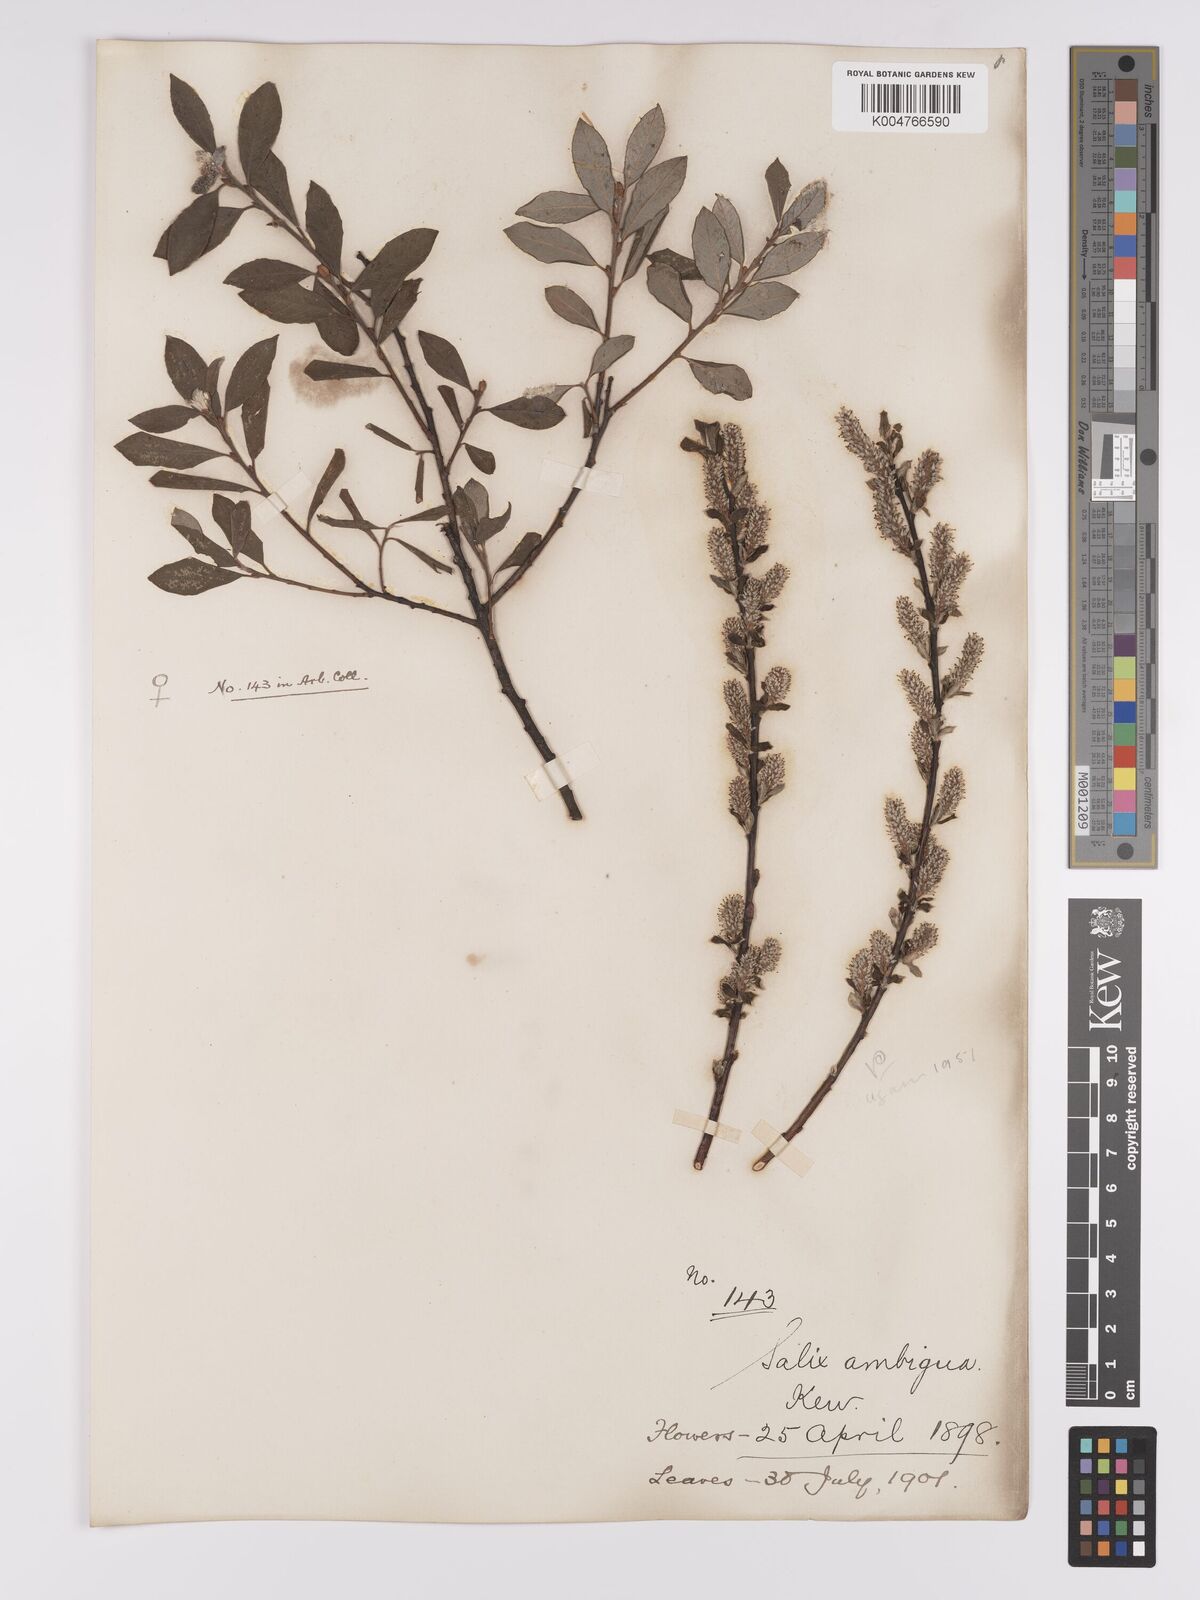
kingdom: Plantae
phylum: Tracheophyta
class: Magnoliopsida
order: Malpighiales
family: Salicaceae
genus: Salix
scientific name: Salix
